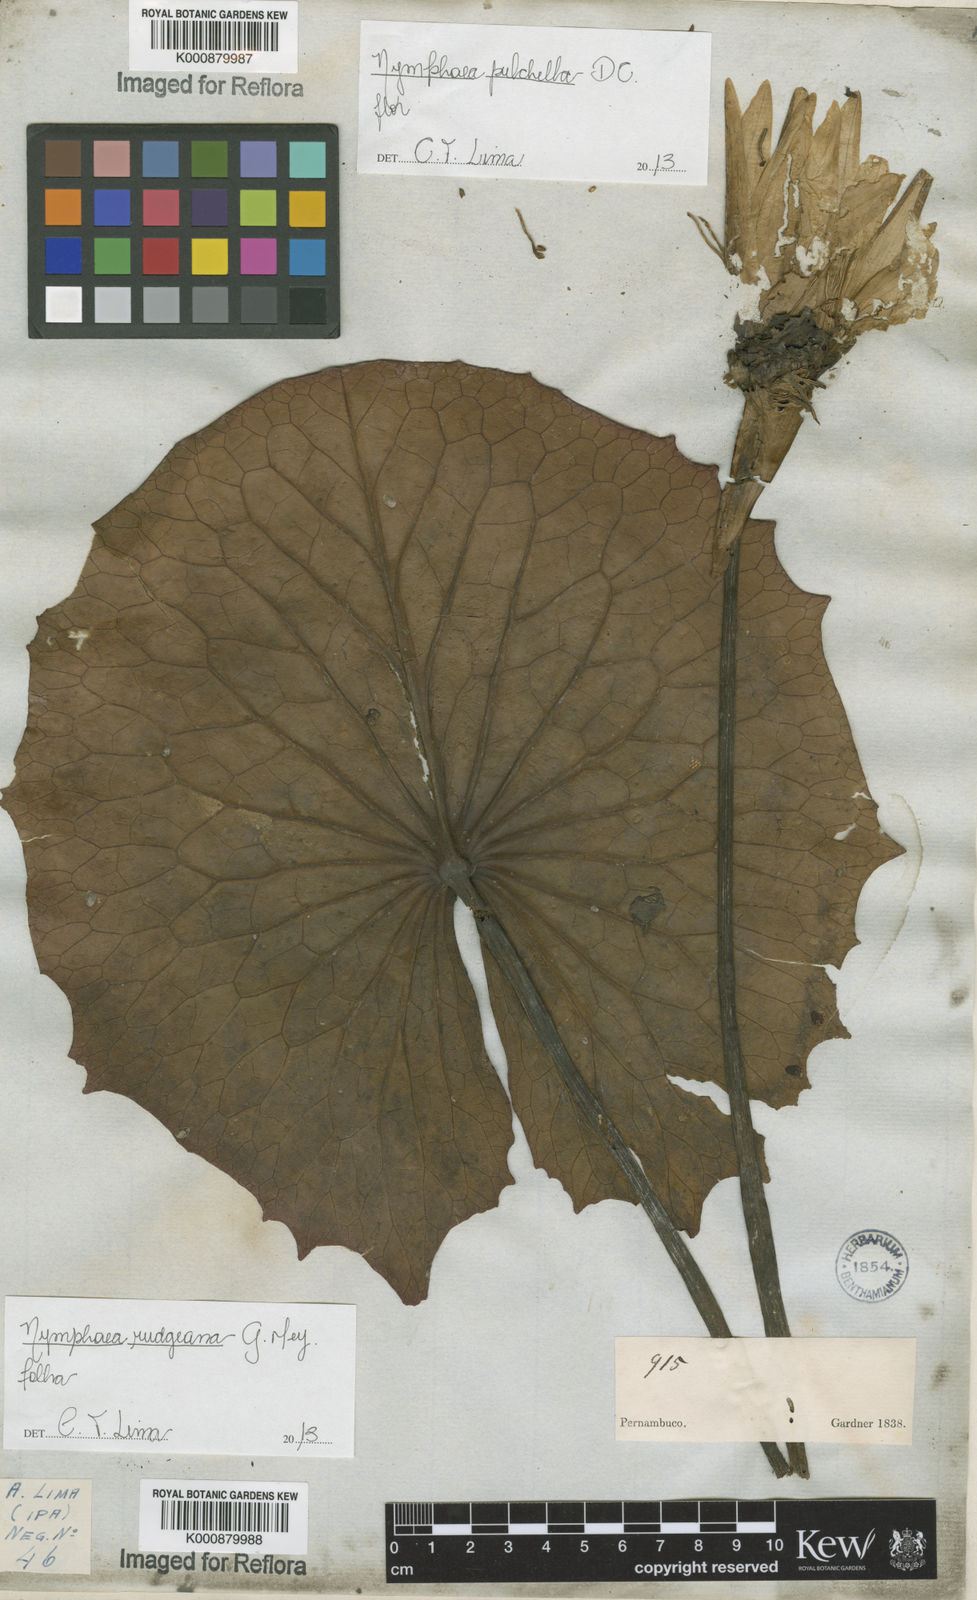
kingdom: Plantae
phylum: Tracheophyta
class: Magnoliopsida
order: Nymphaeales
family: Nymphaeaceae
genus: Nymphaea
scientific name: Nymphaea pulchella
